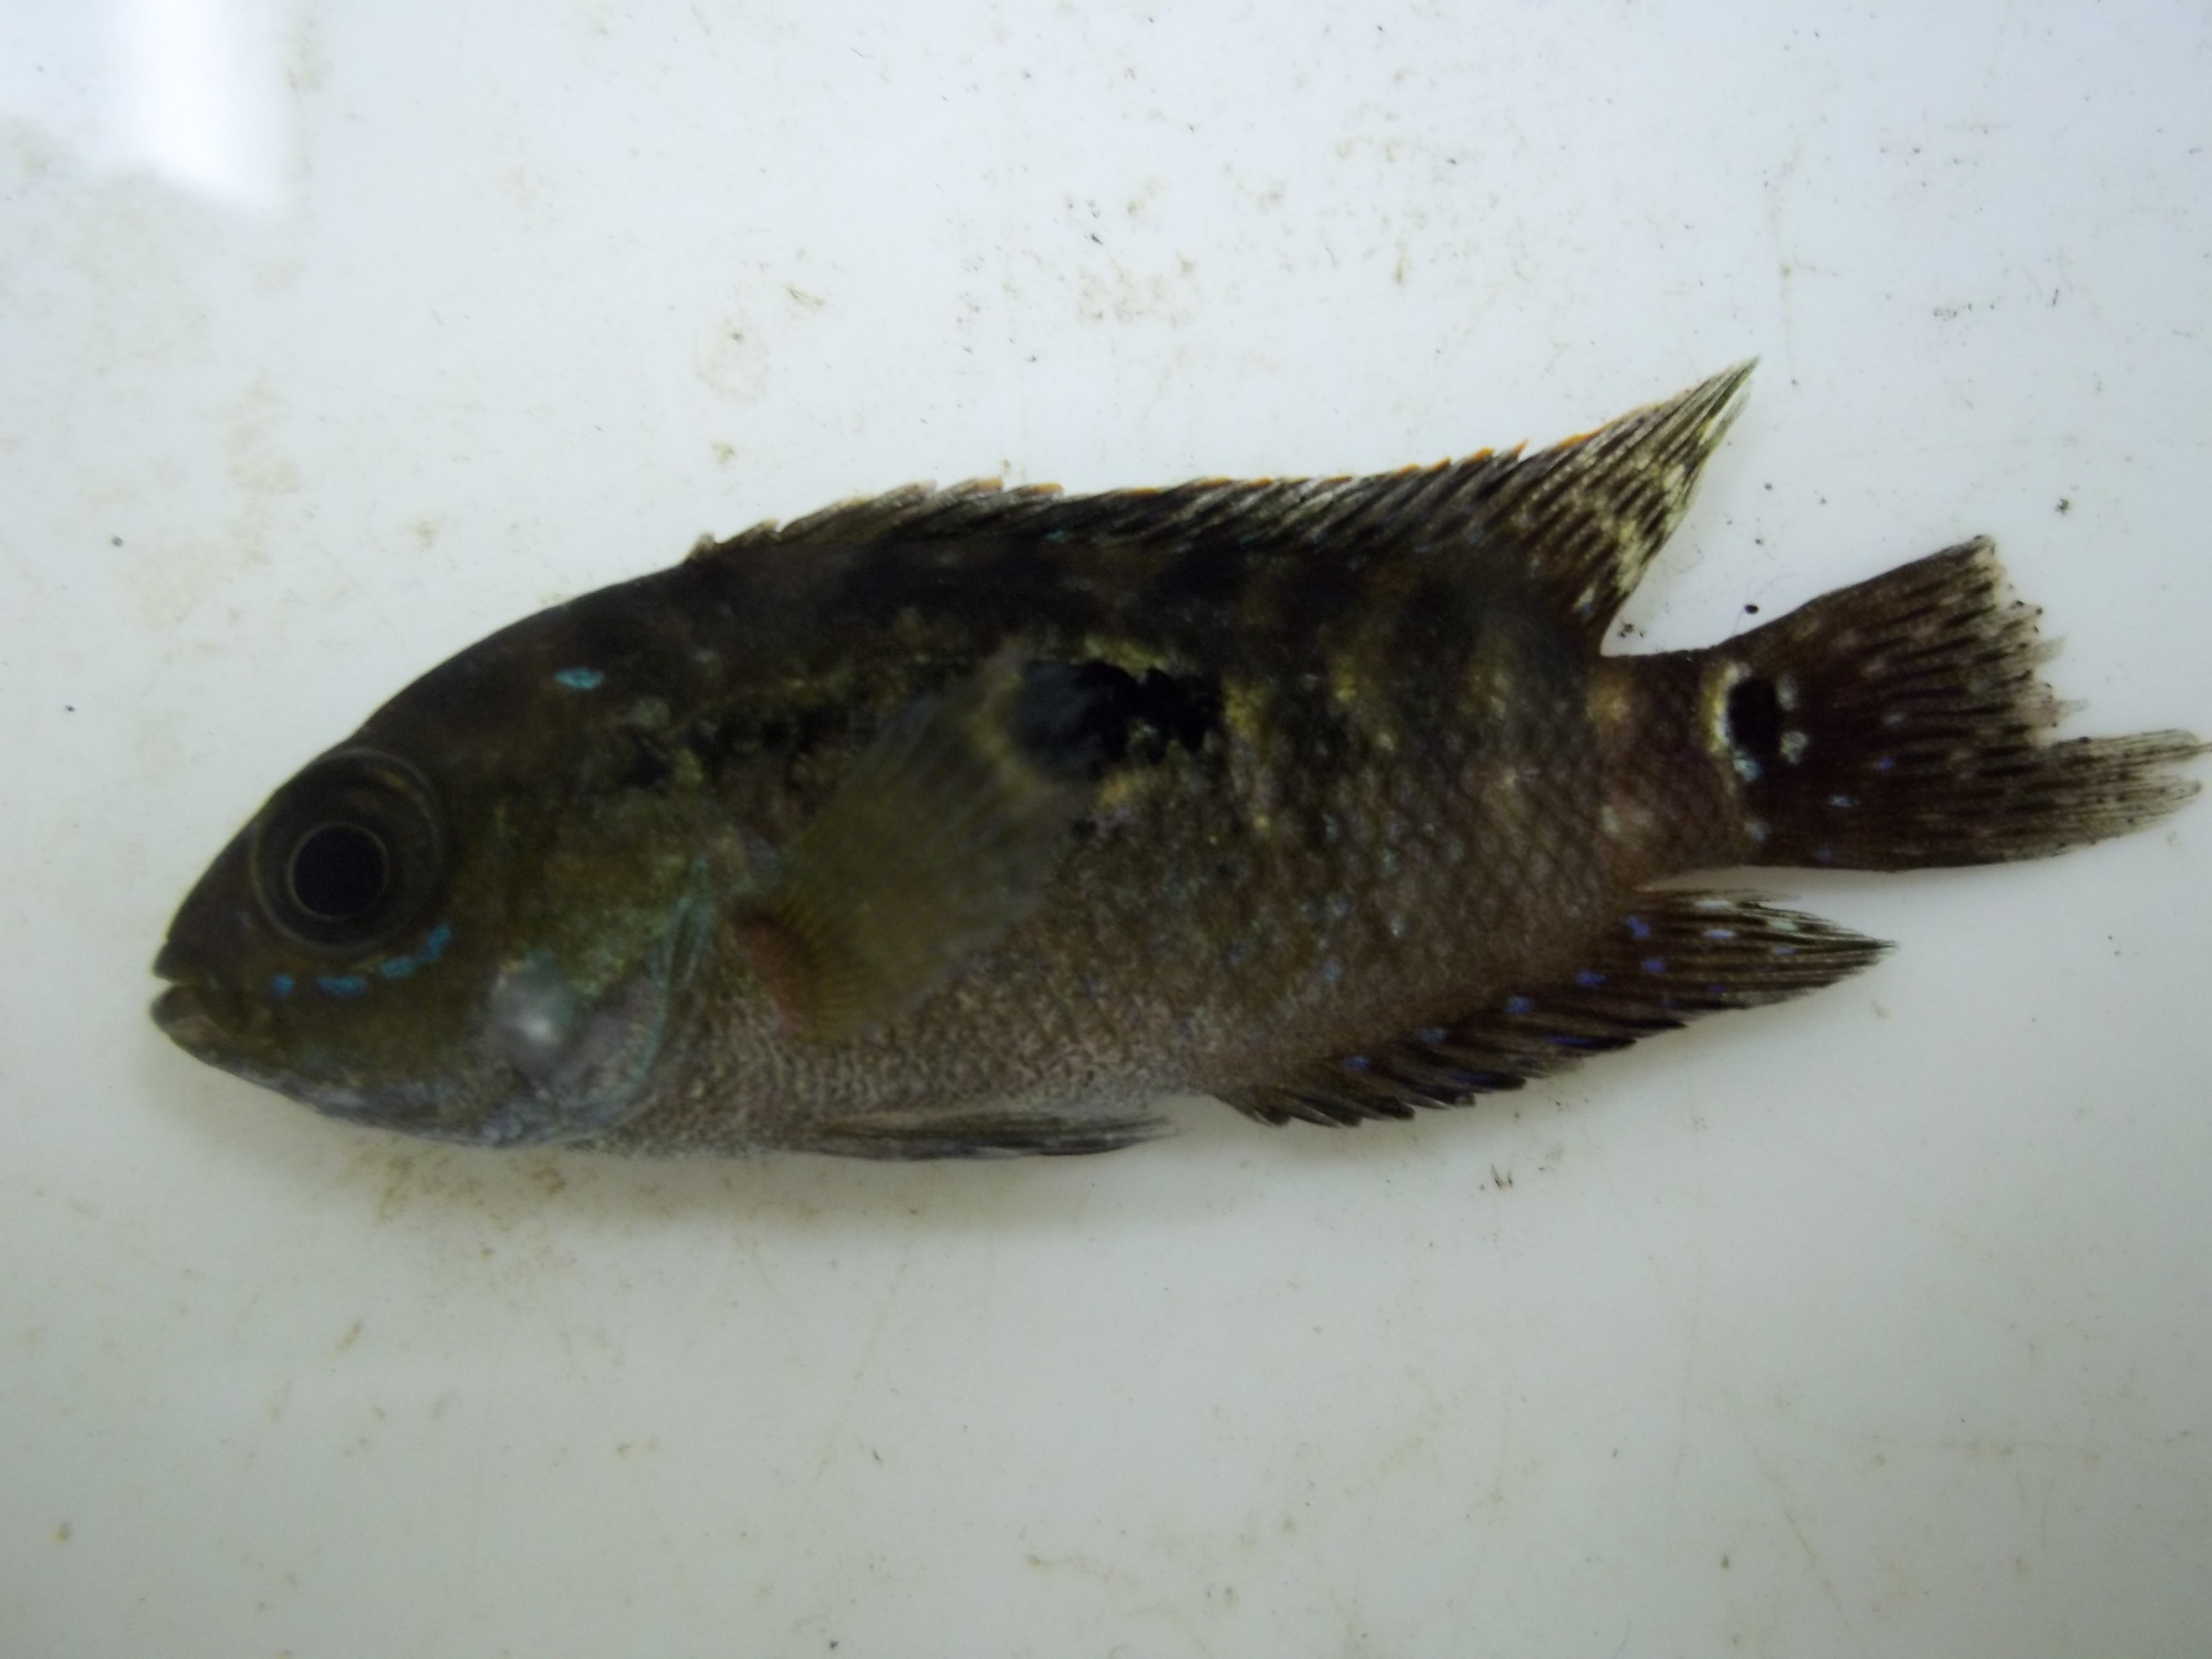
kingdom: Animalia
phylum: Chordata
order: Perciformes
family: Cichlidae
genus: Hemichromis
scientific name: Hemichromis
